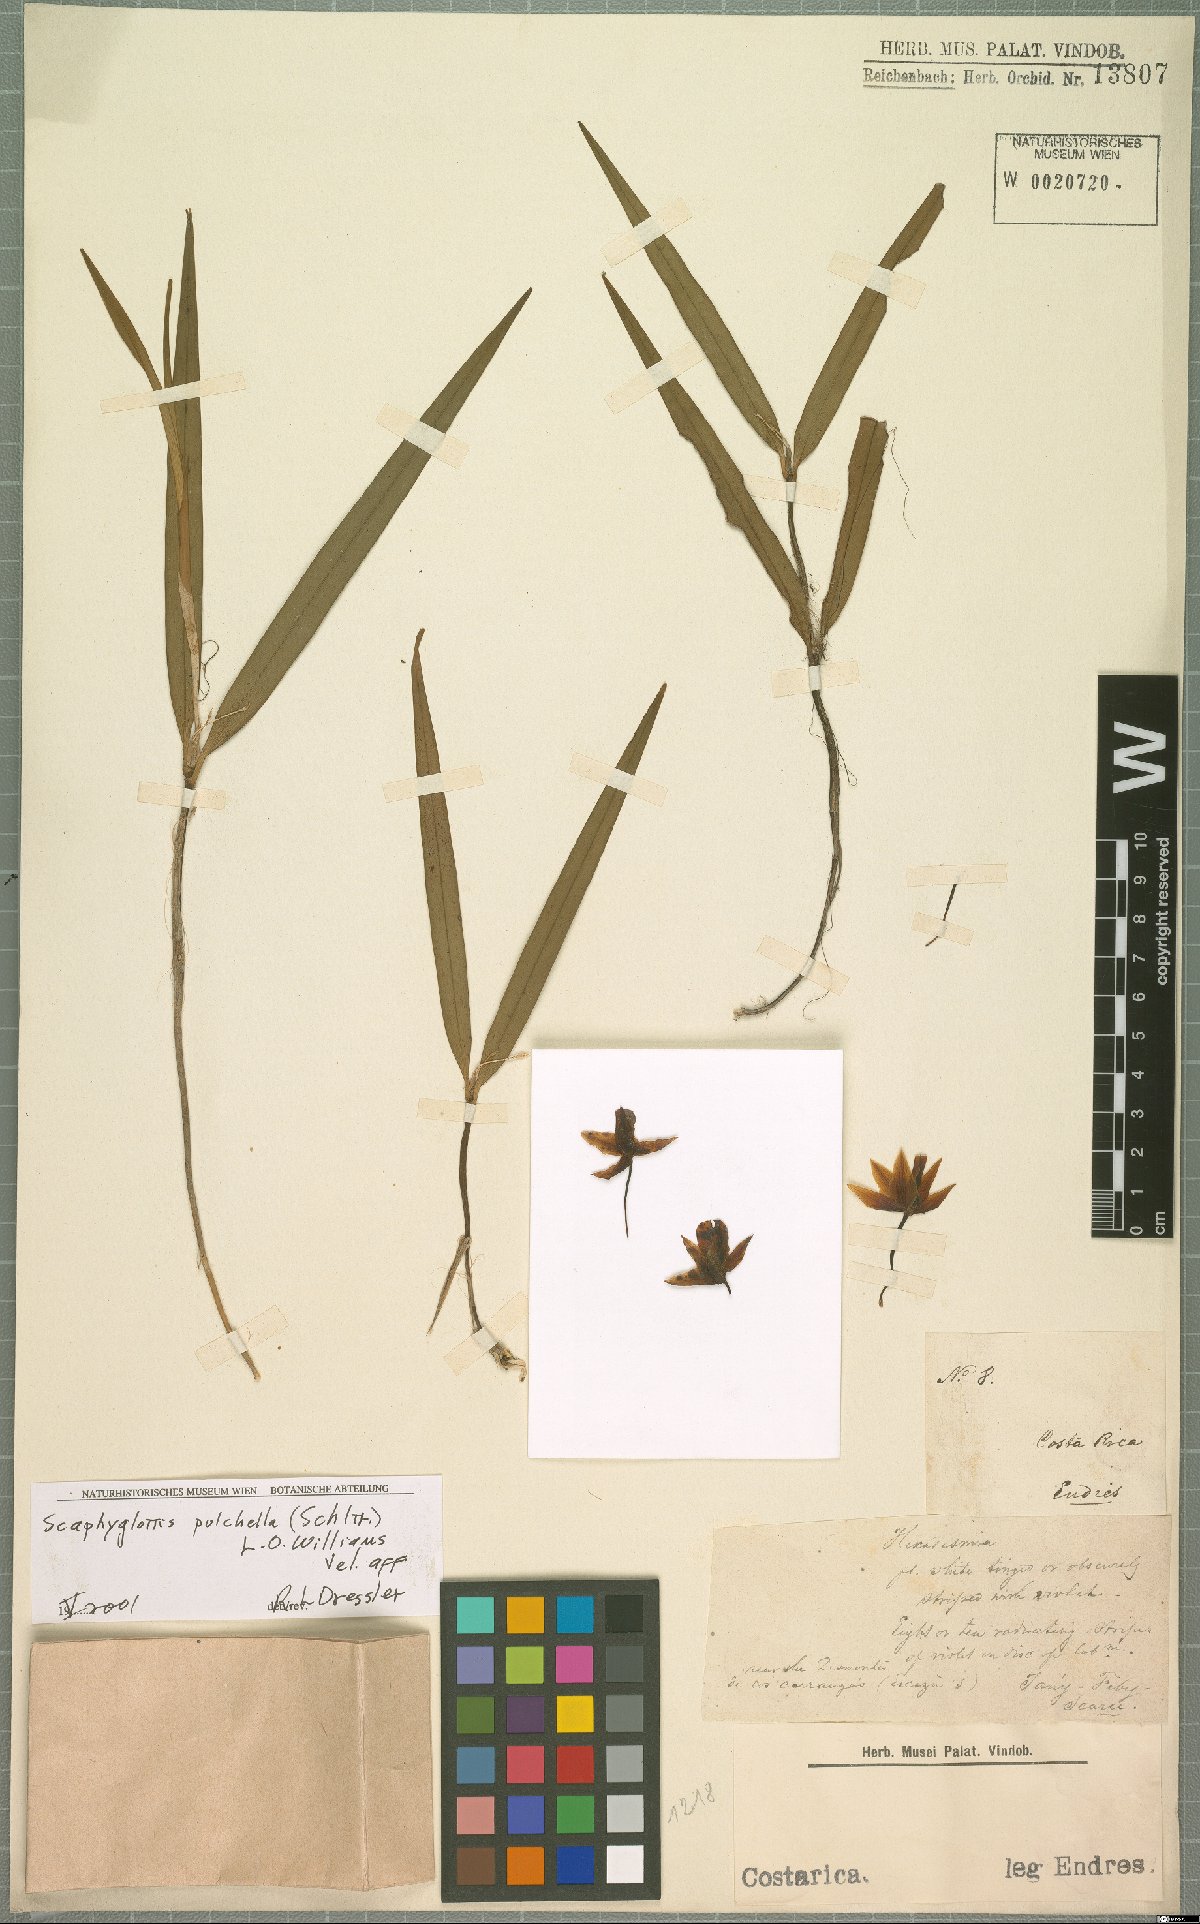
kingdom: Plantae
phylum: Tracheophyta
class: Liliopsida
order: Asparagales
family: Orchidaceae
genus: Scaphyglottis
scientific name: Scaphyglottis pulchella
